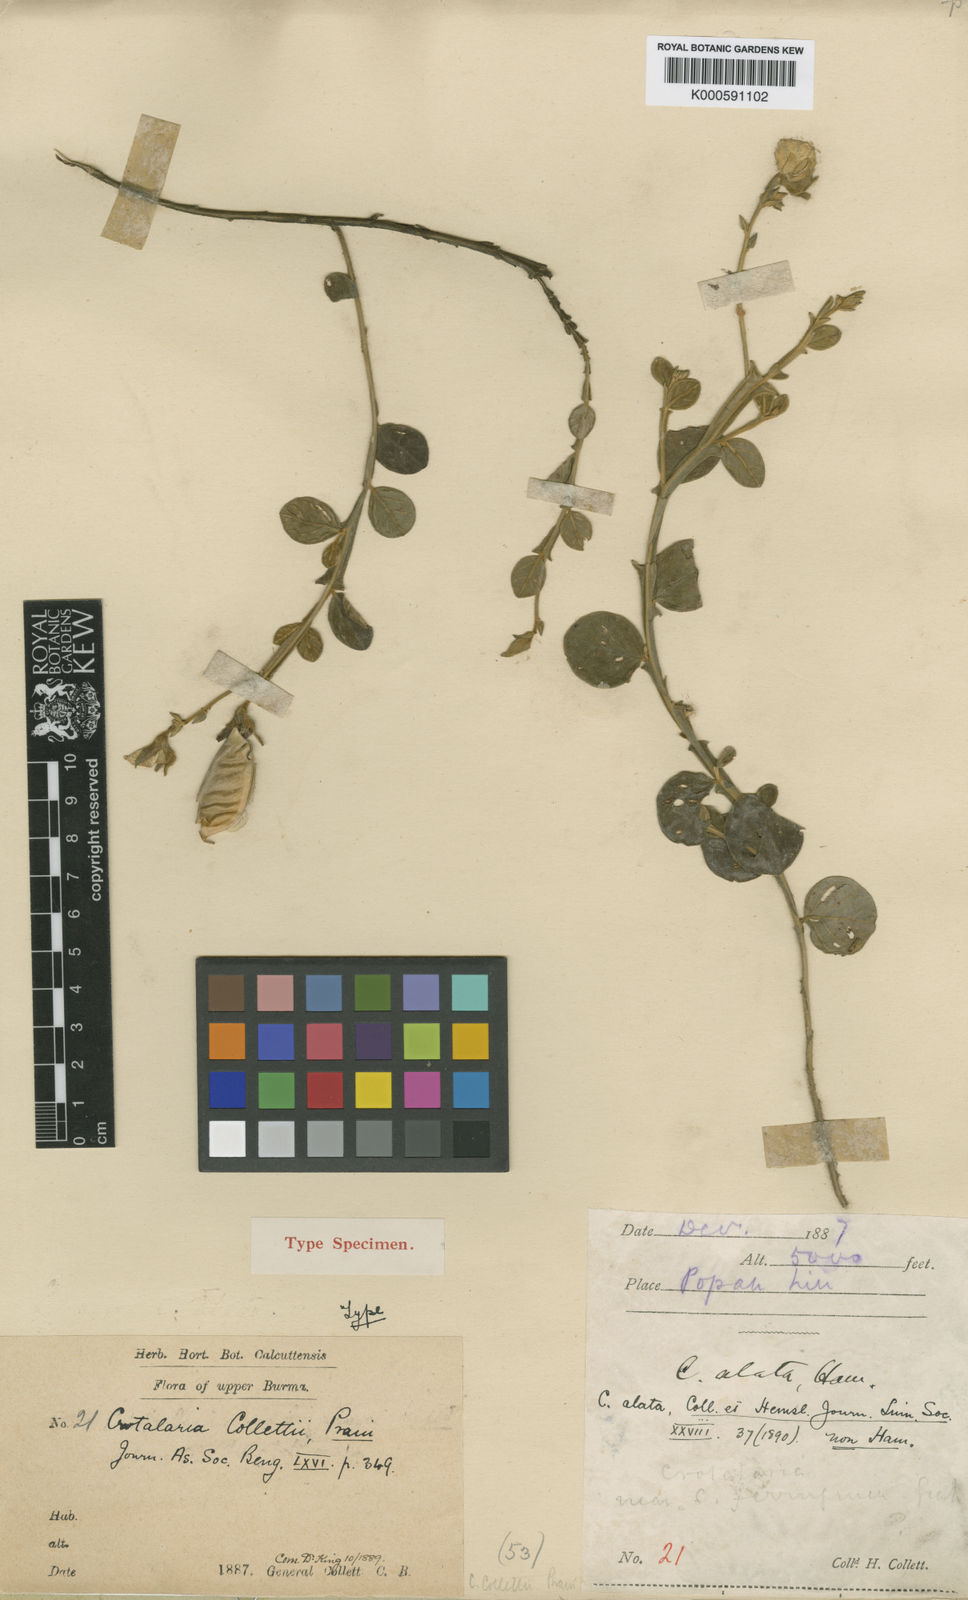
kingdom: Plantae
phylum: Tracheophyta
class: Magnoliopsida
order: Fabales
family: Fabaceae
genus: Crotalaria
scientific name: Crotalaria alata
